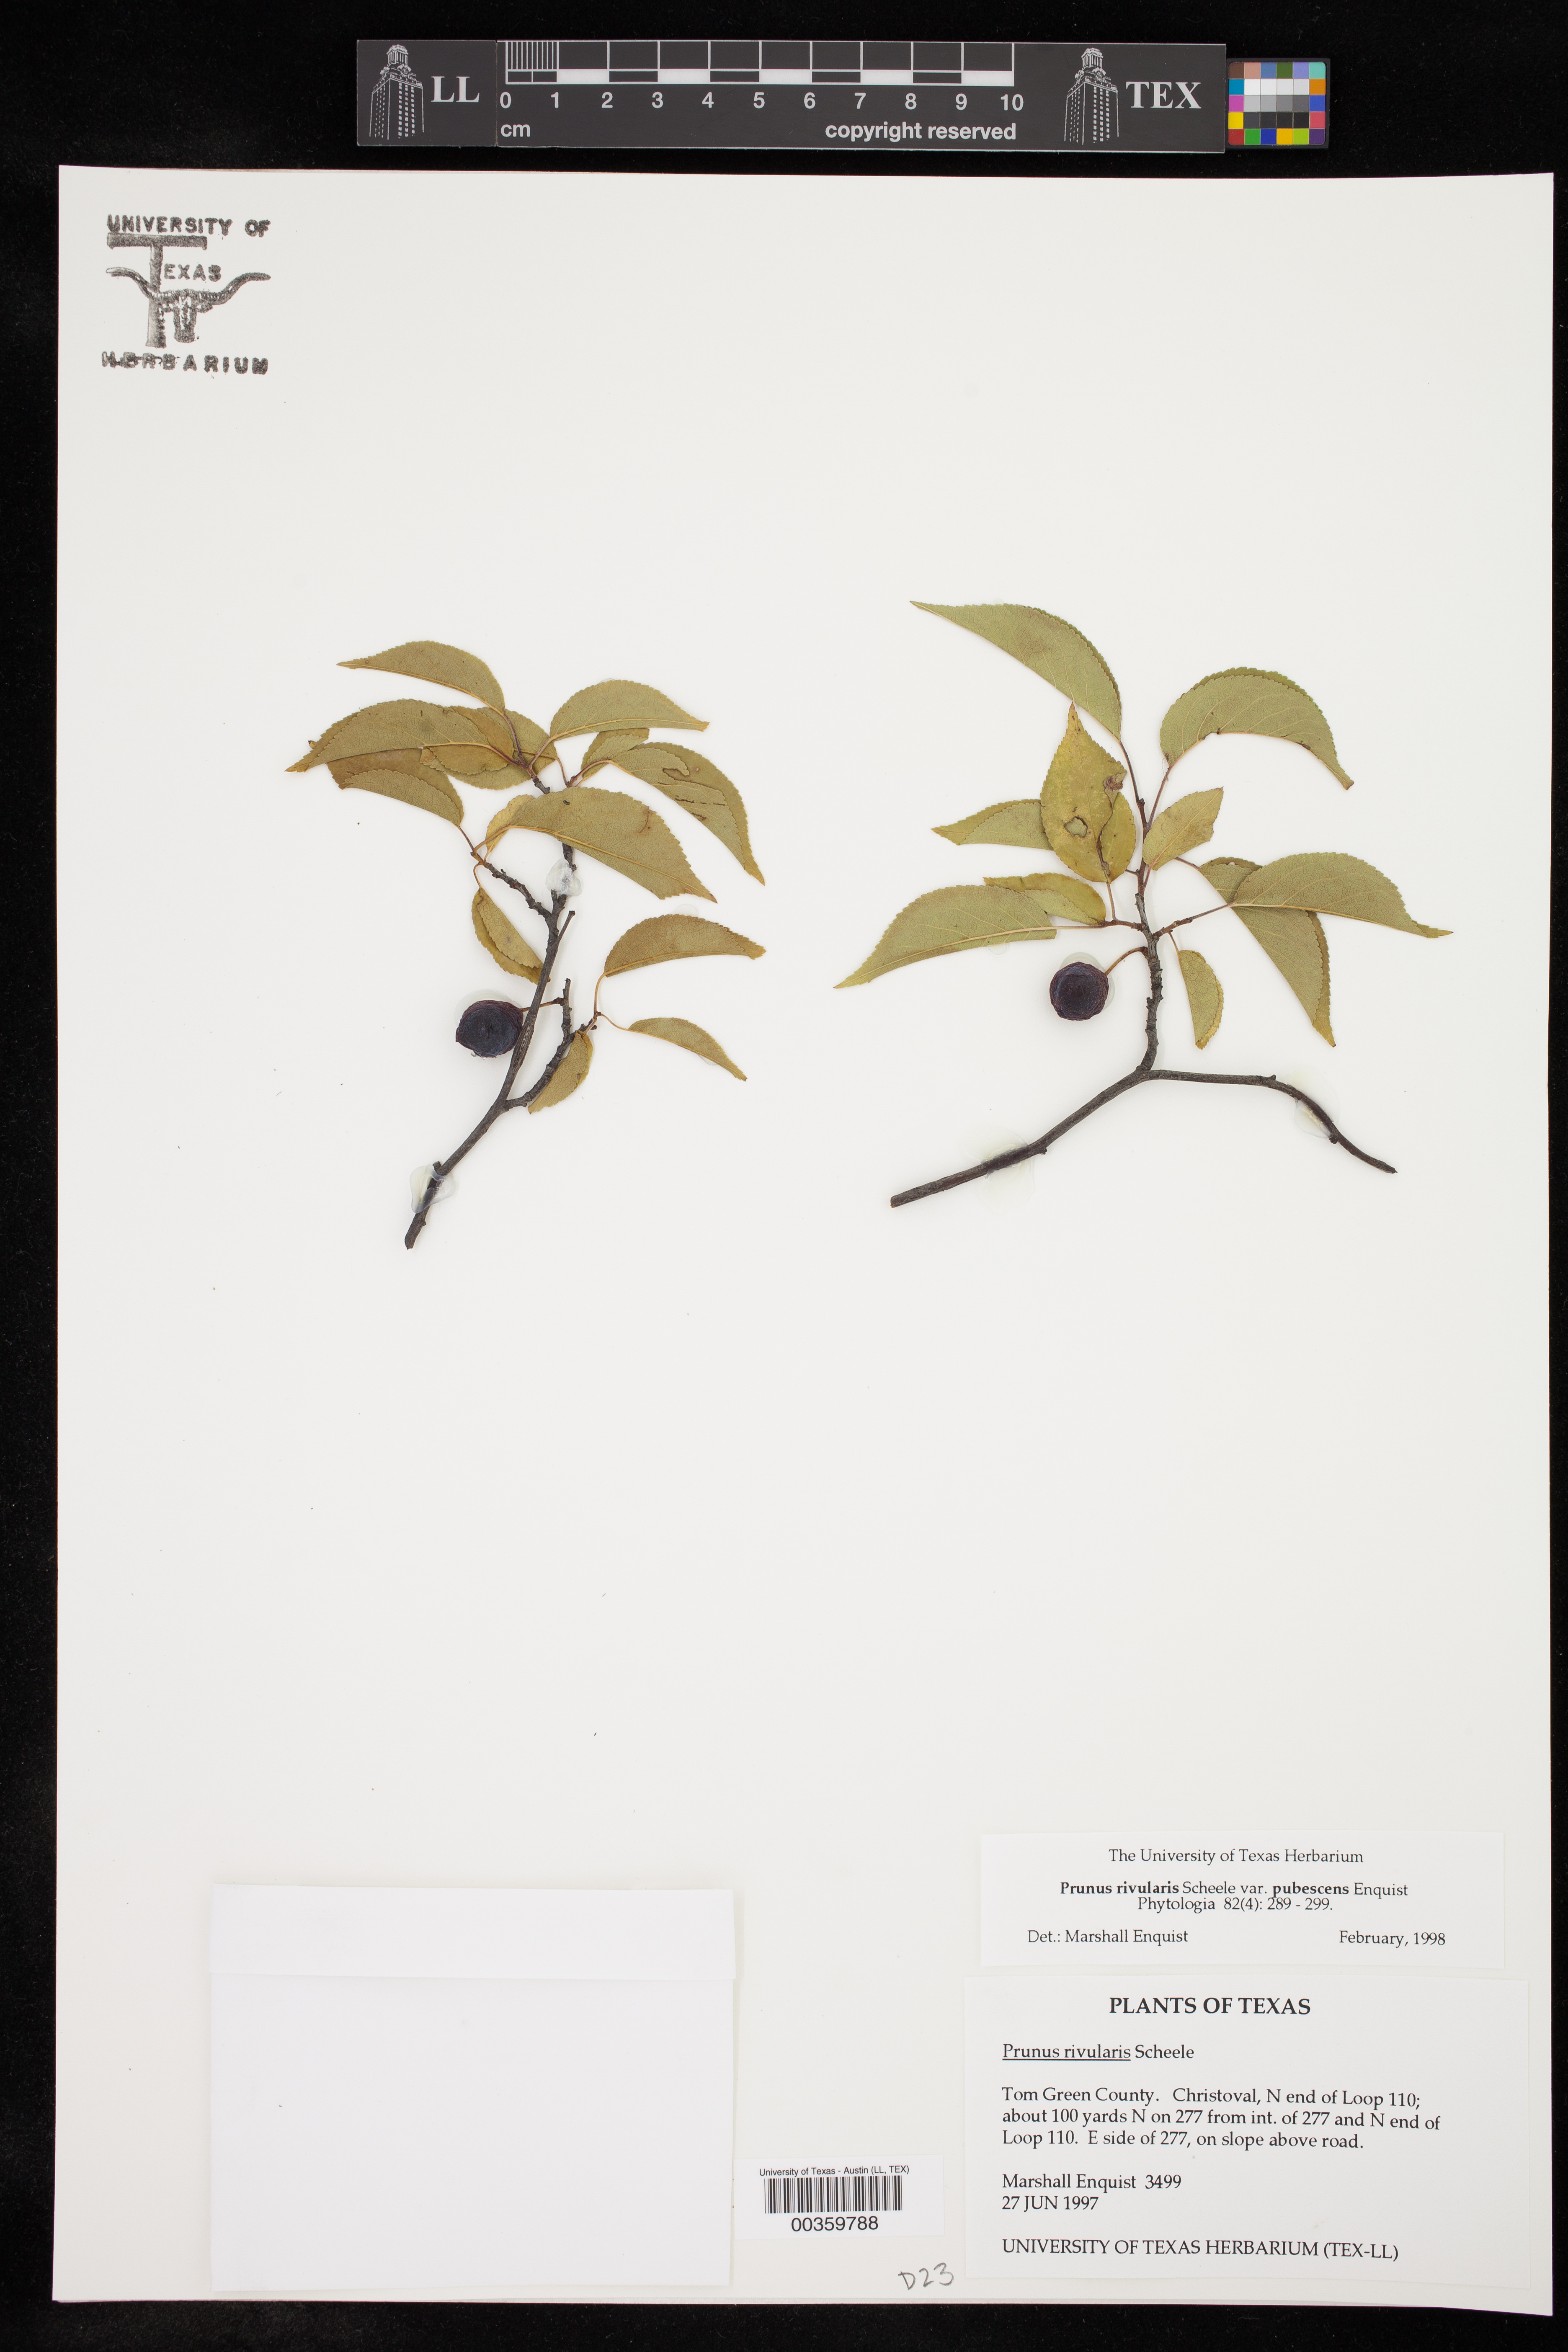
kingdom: Plantae
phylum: Tracheophyta
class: Magnoliopsida
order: Rosales
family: Rosaceae
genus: Prunus
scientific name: Prunus rivularis
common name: Creek plum
